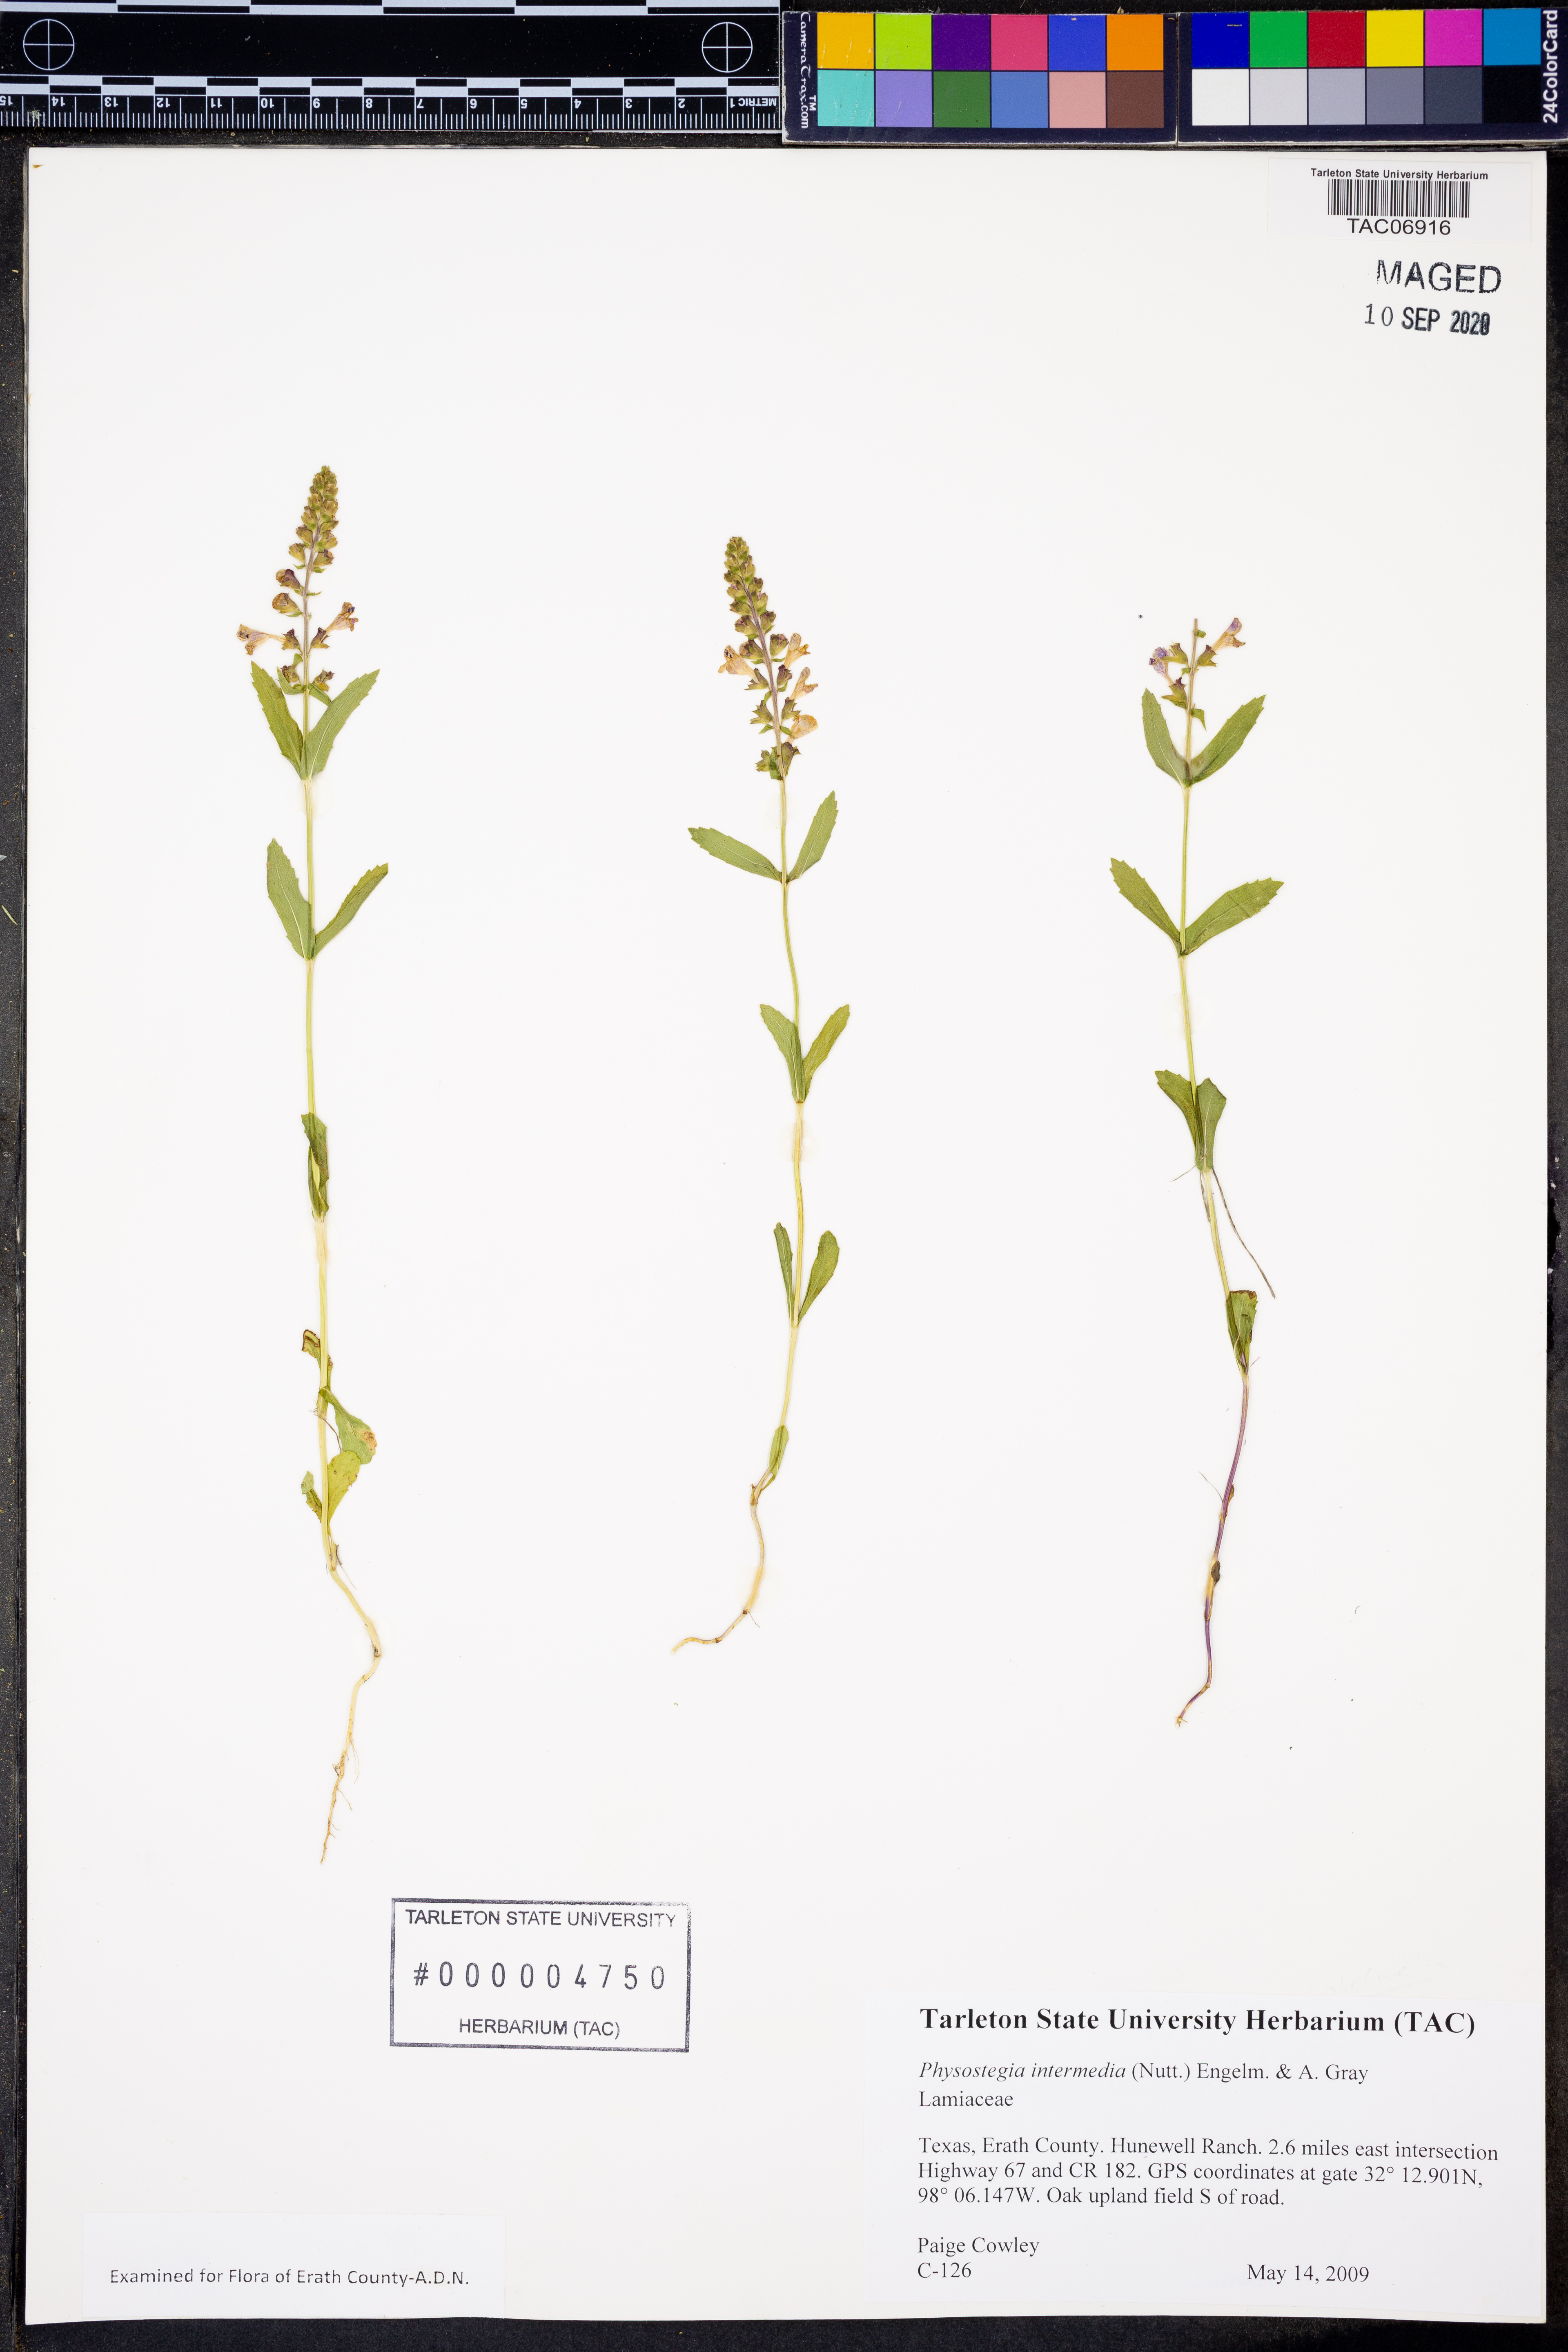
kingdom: Plantae
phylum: Tracheophyta
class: Magnoliopsida
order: Lamiales
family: Lamiaceae
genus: Physostegia
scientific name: Physostegia intermedia
